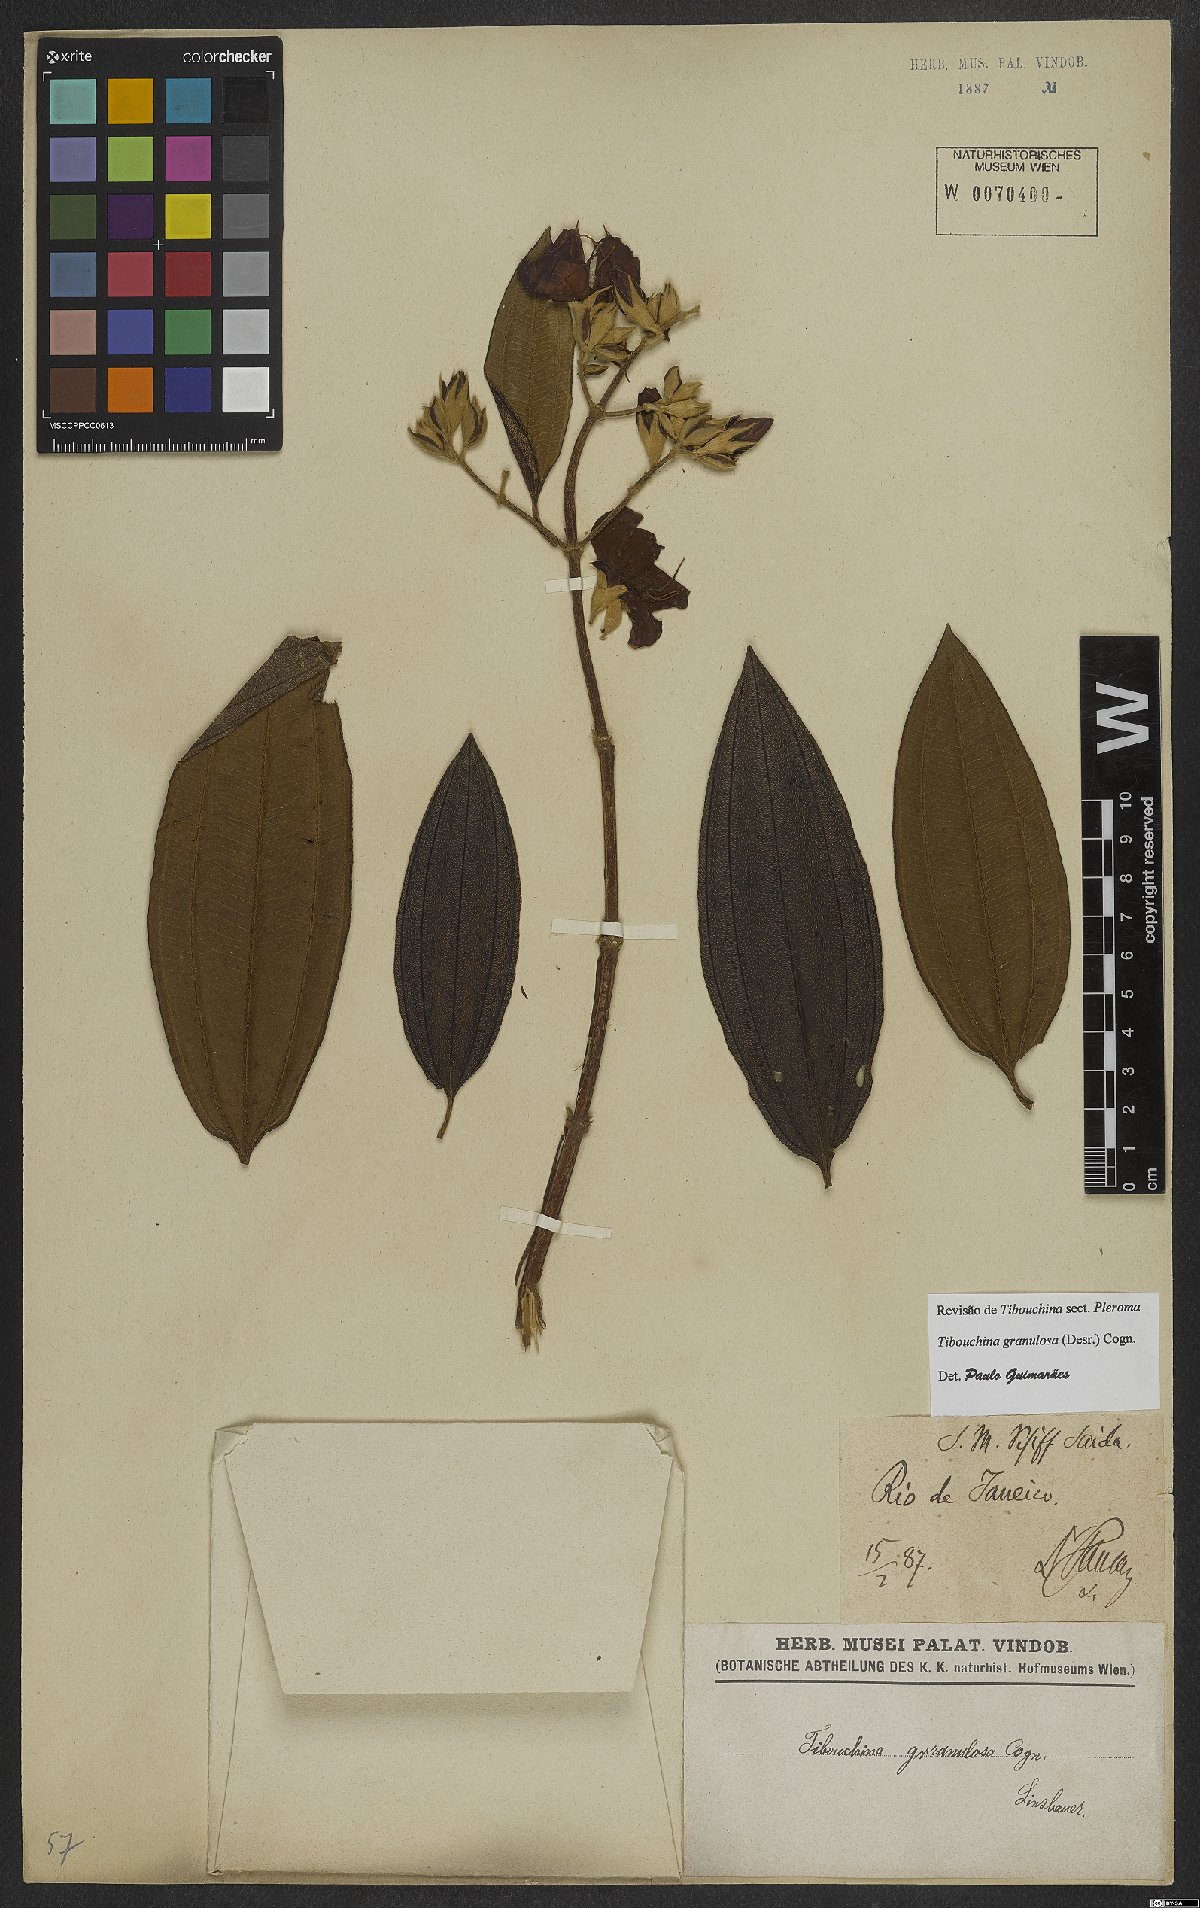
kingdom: Plantae
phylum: Tracheophyta
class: Magnoliopsida
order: Myrtales
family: Melastomataceae
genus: Pleroma
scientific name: Pleroma granulosum
